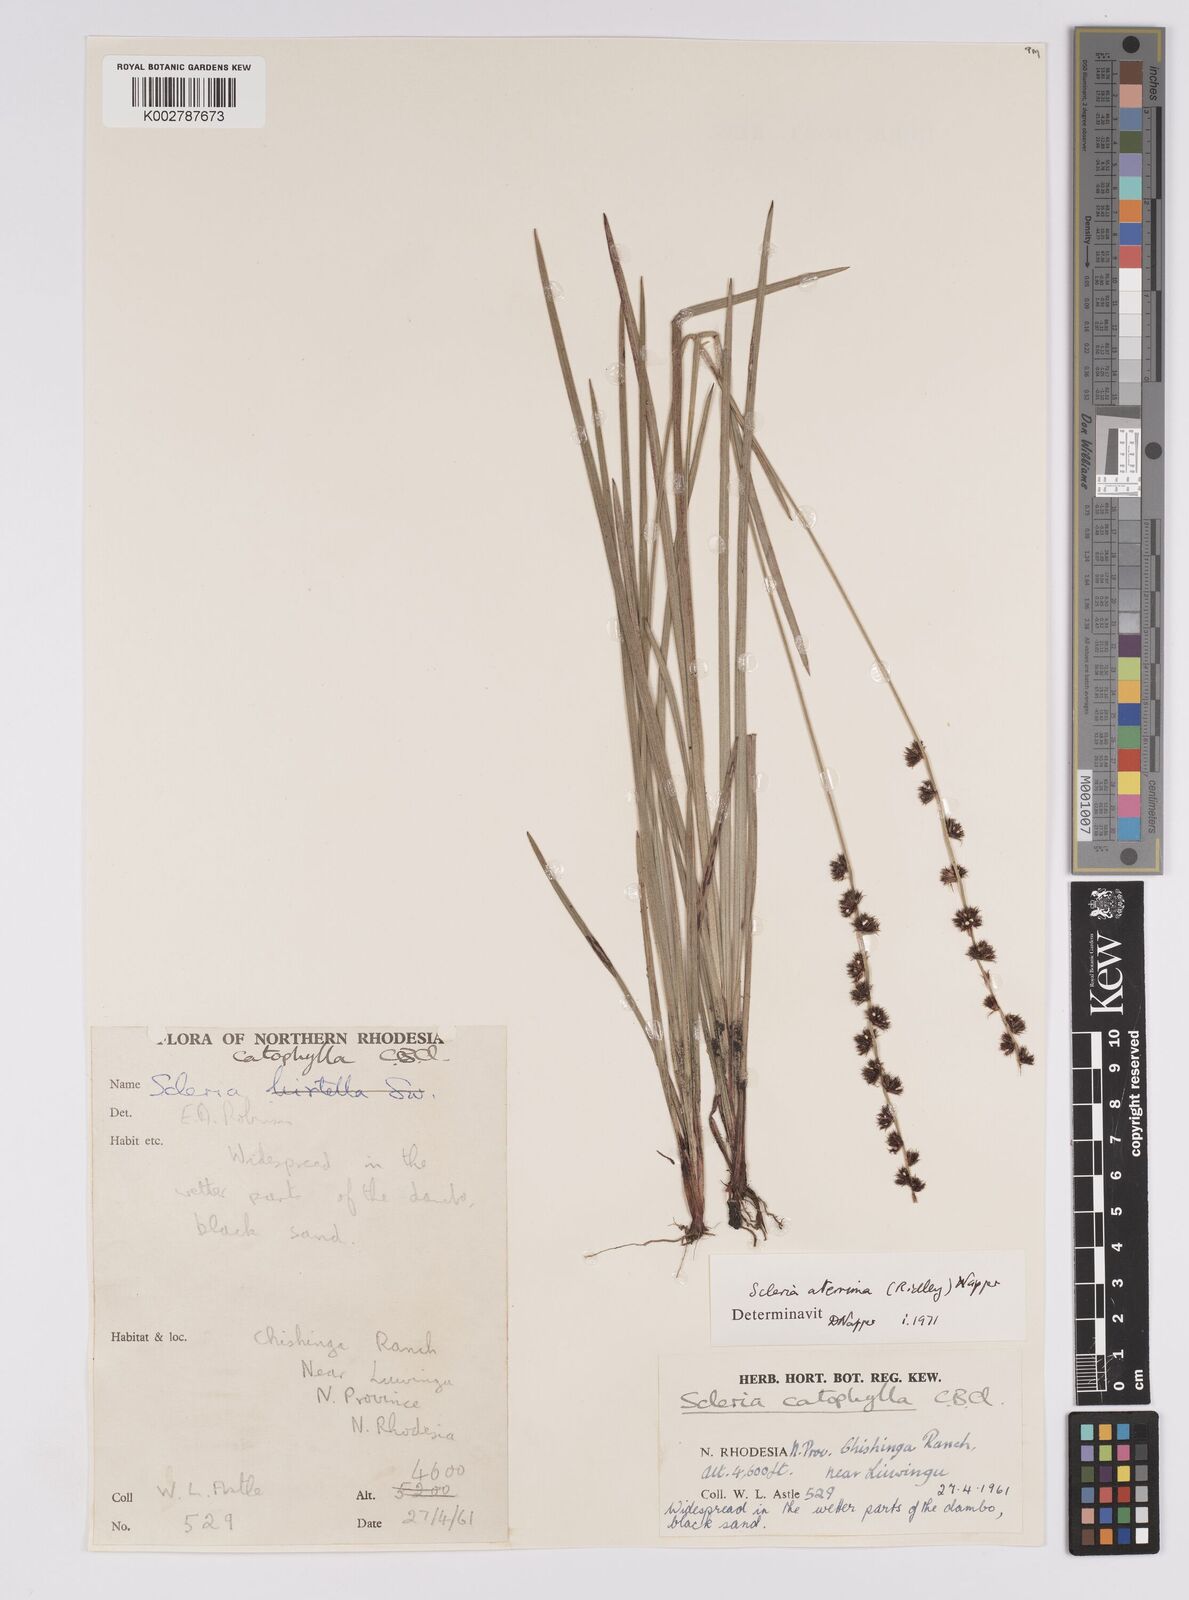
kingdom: Plantae
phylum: Tracheophyta
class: Liliopsida
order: Poales
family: Cyperaceae
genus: Scleria
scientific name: Scleria catophylla
